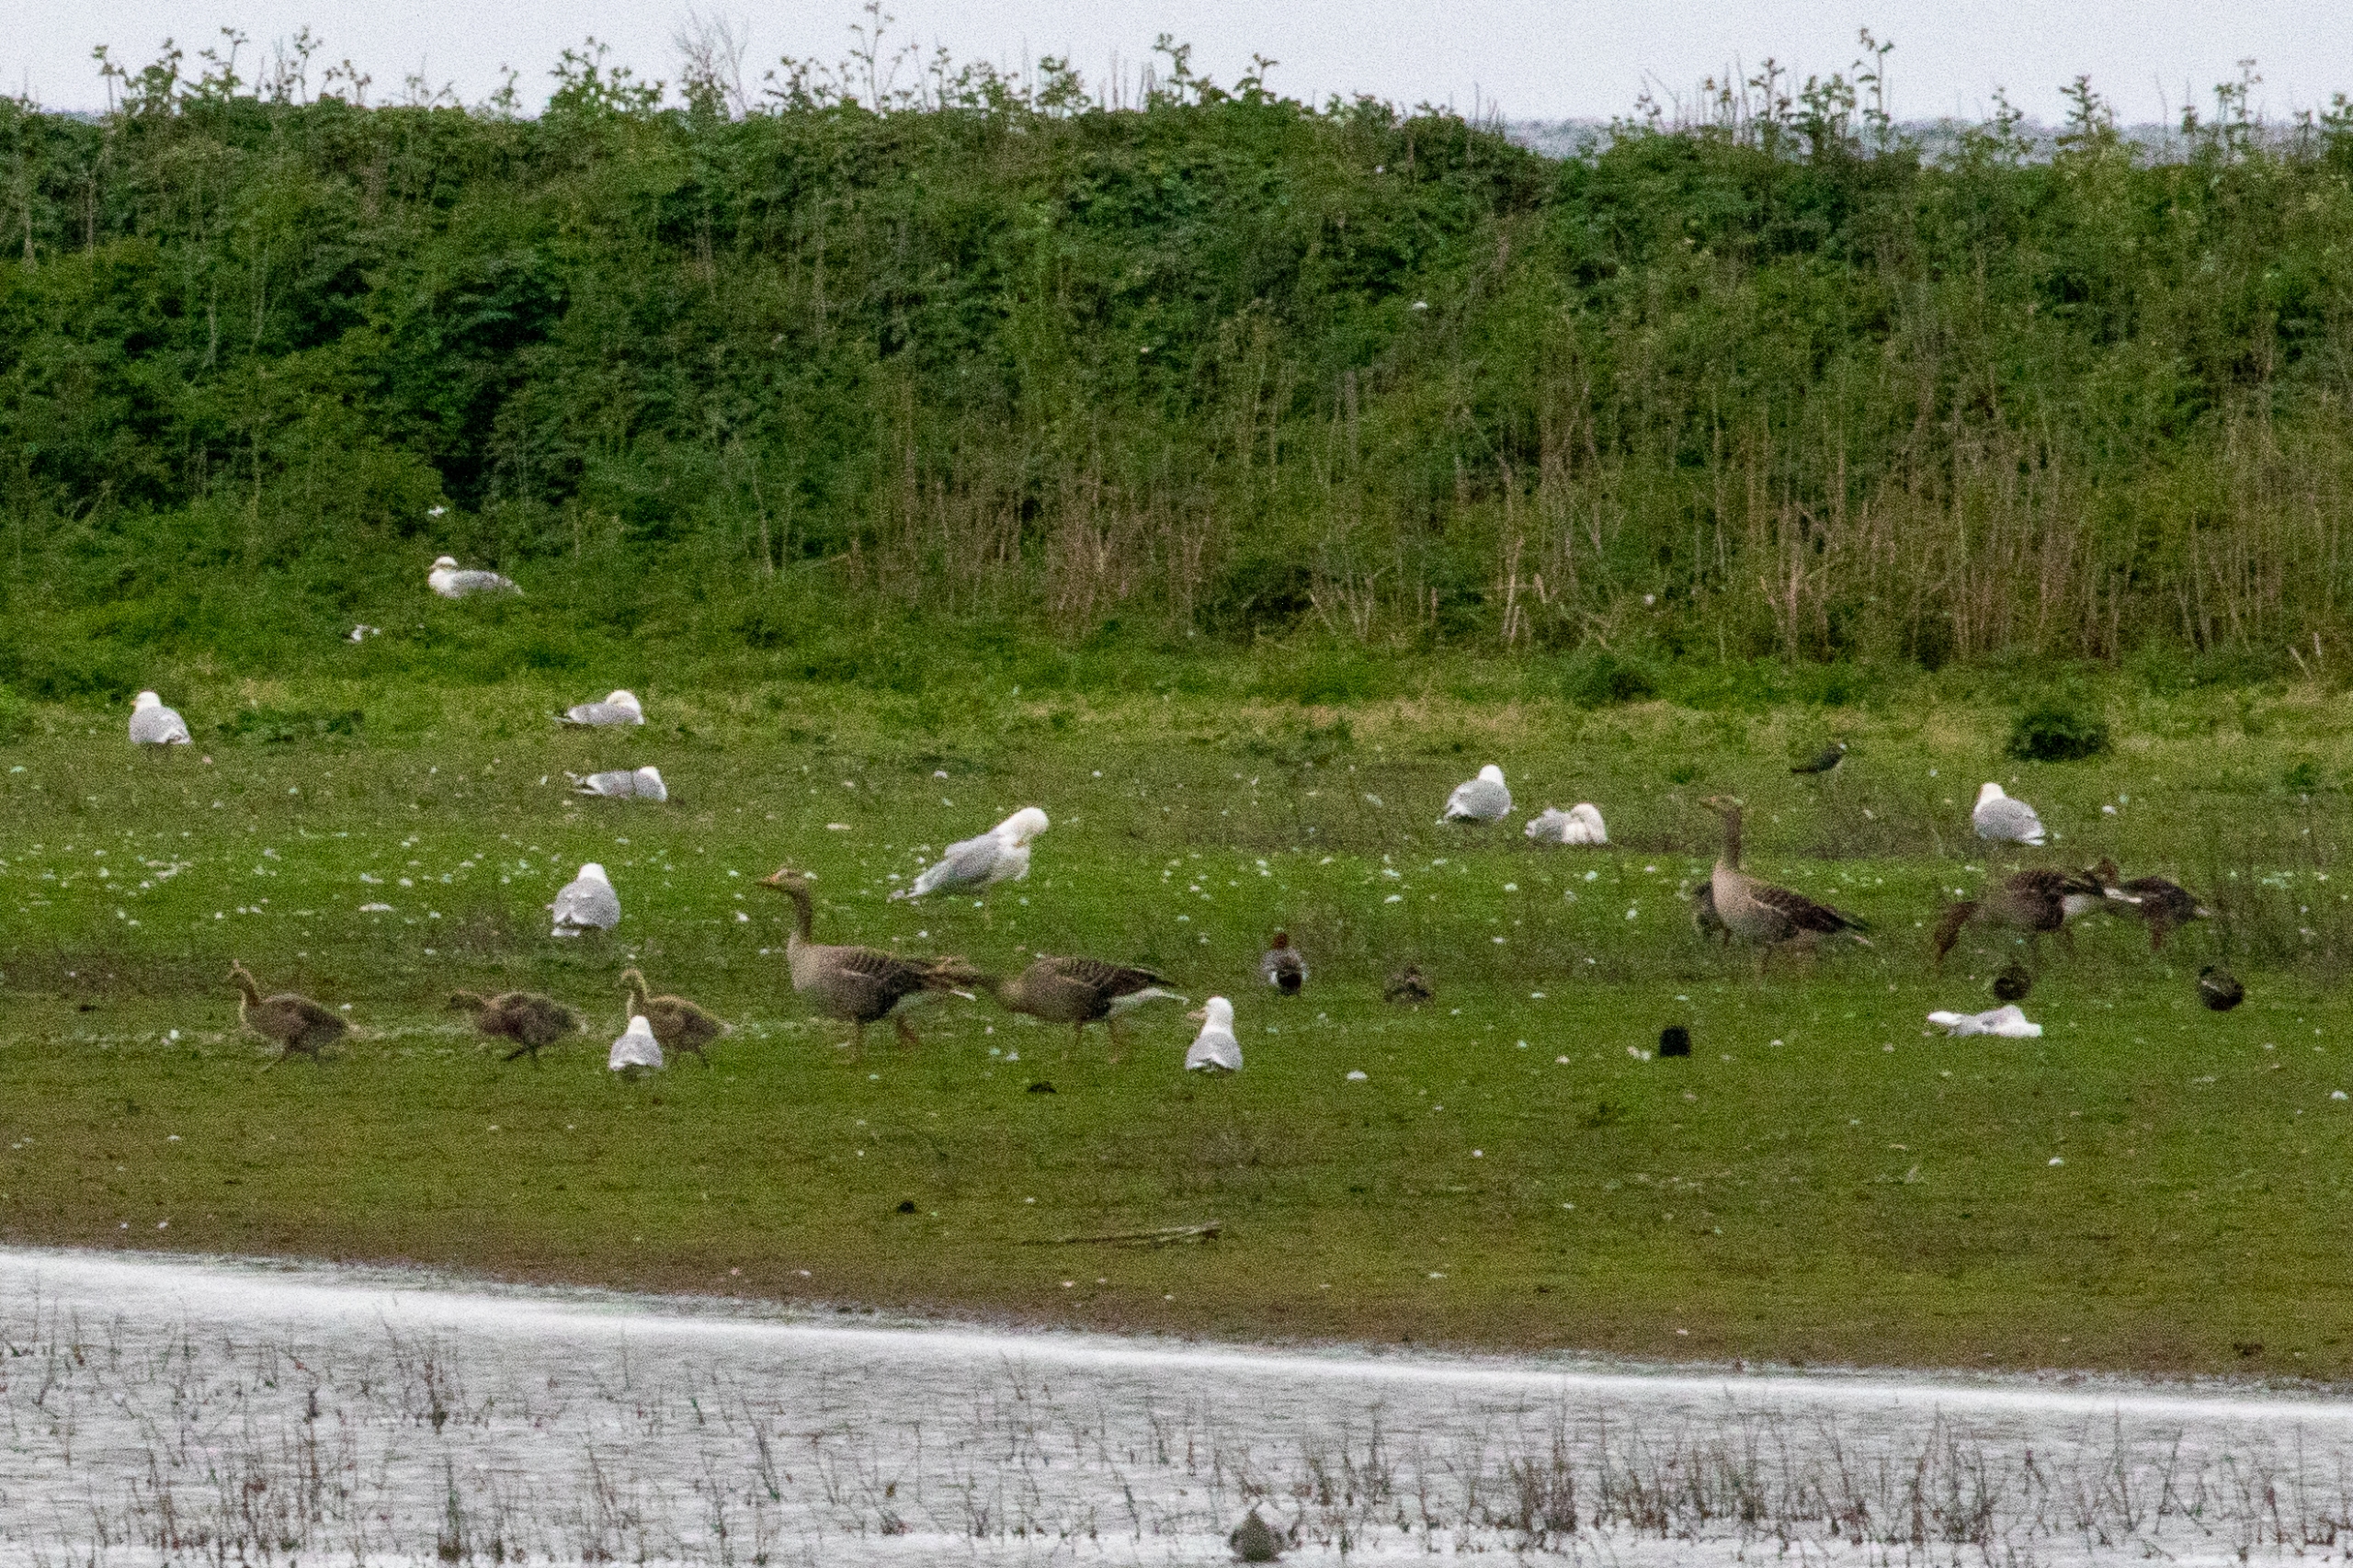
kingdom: Animalia
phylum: Chordata
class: Aves
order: Anseriformes
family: Anatidae
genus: Anser
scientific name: Anser anser
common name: Grågås
